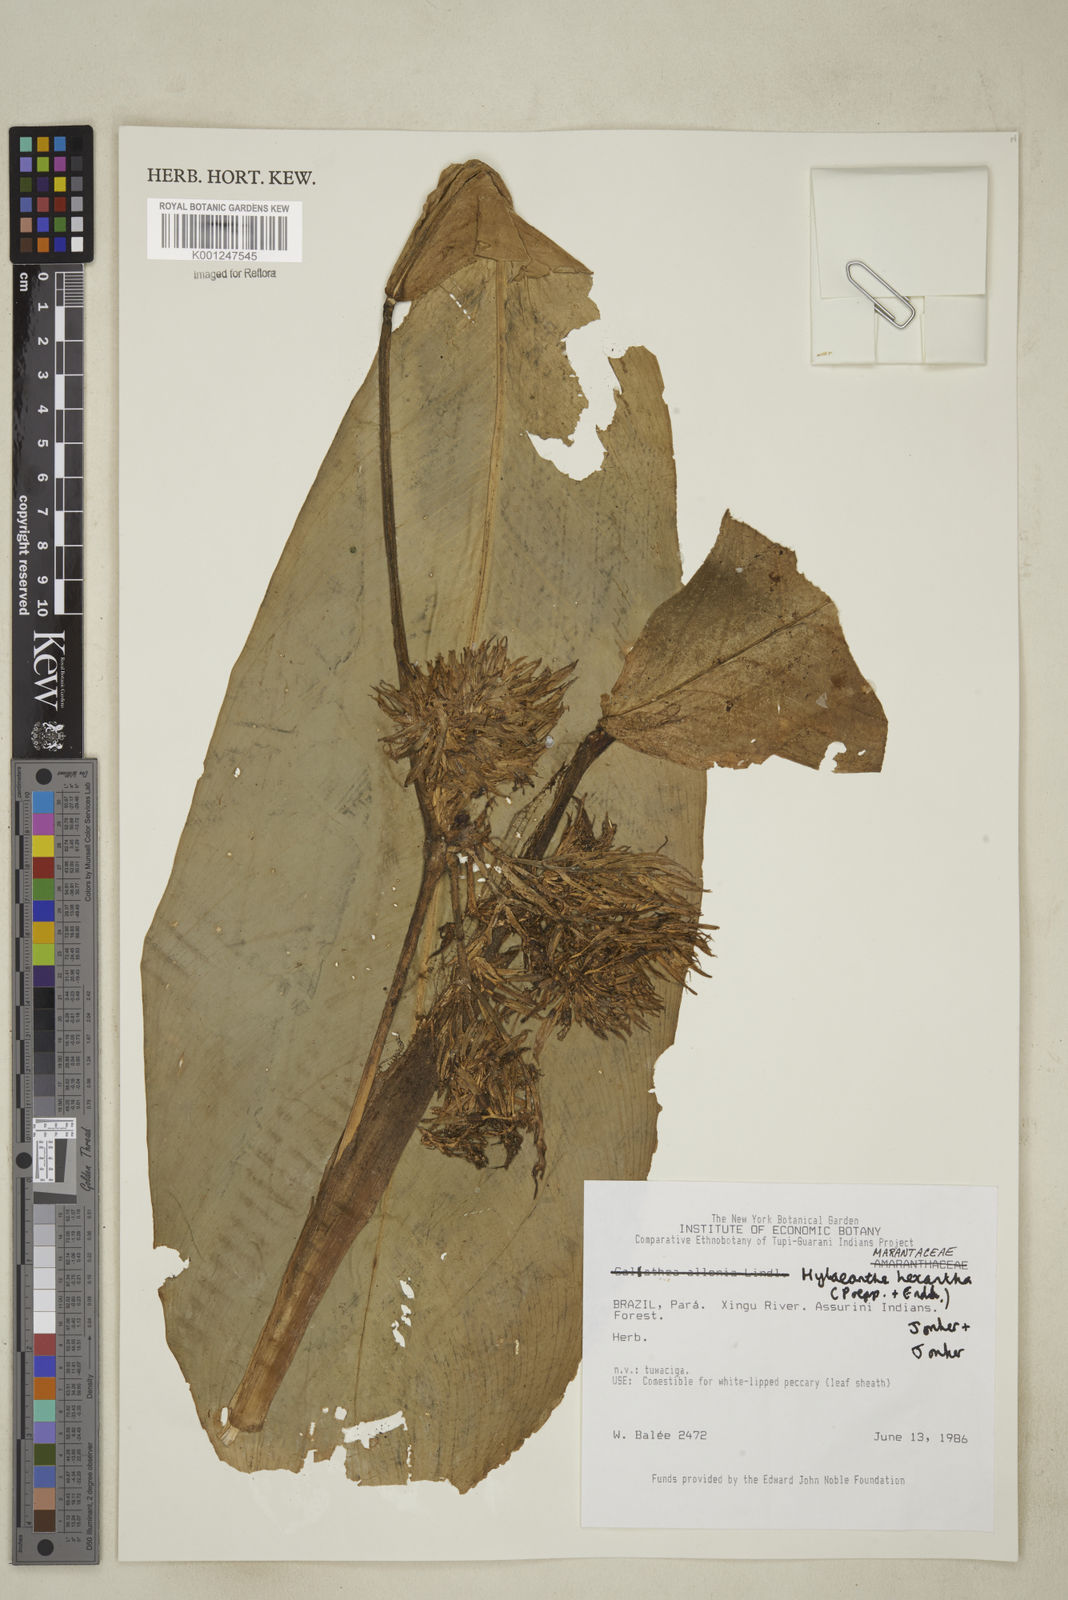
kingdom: Plantae
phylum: Tracheophyta
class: Liliopsida
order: Zingiberales
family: Marantaceae
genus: Hylaeanthe
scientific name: Hylaeanthe hexantha
